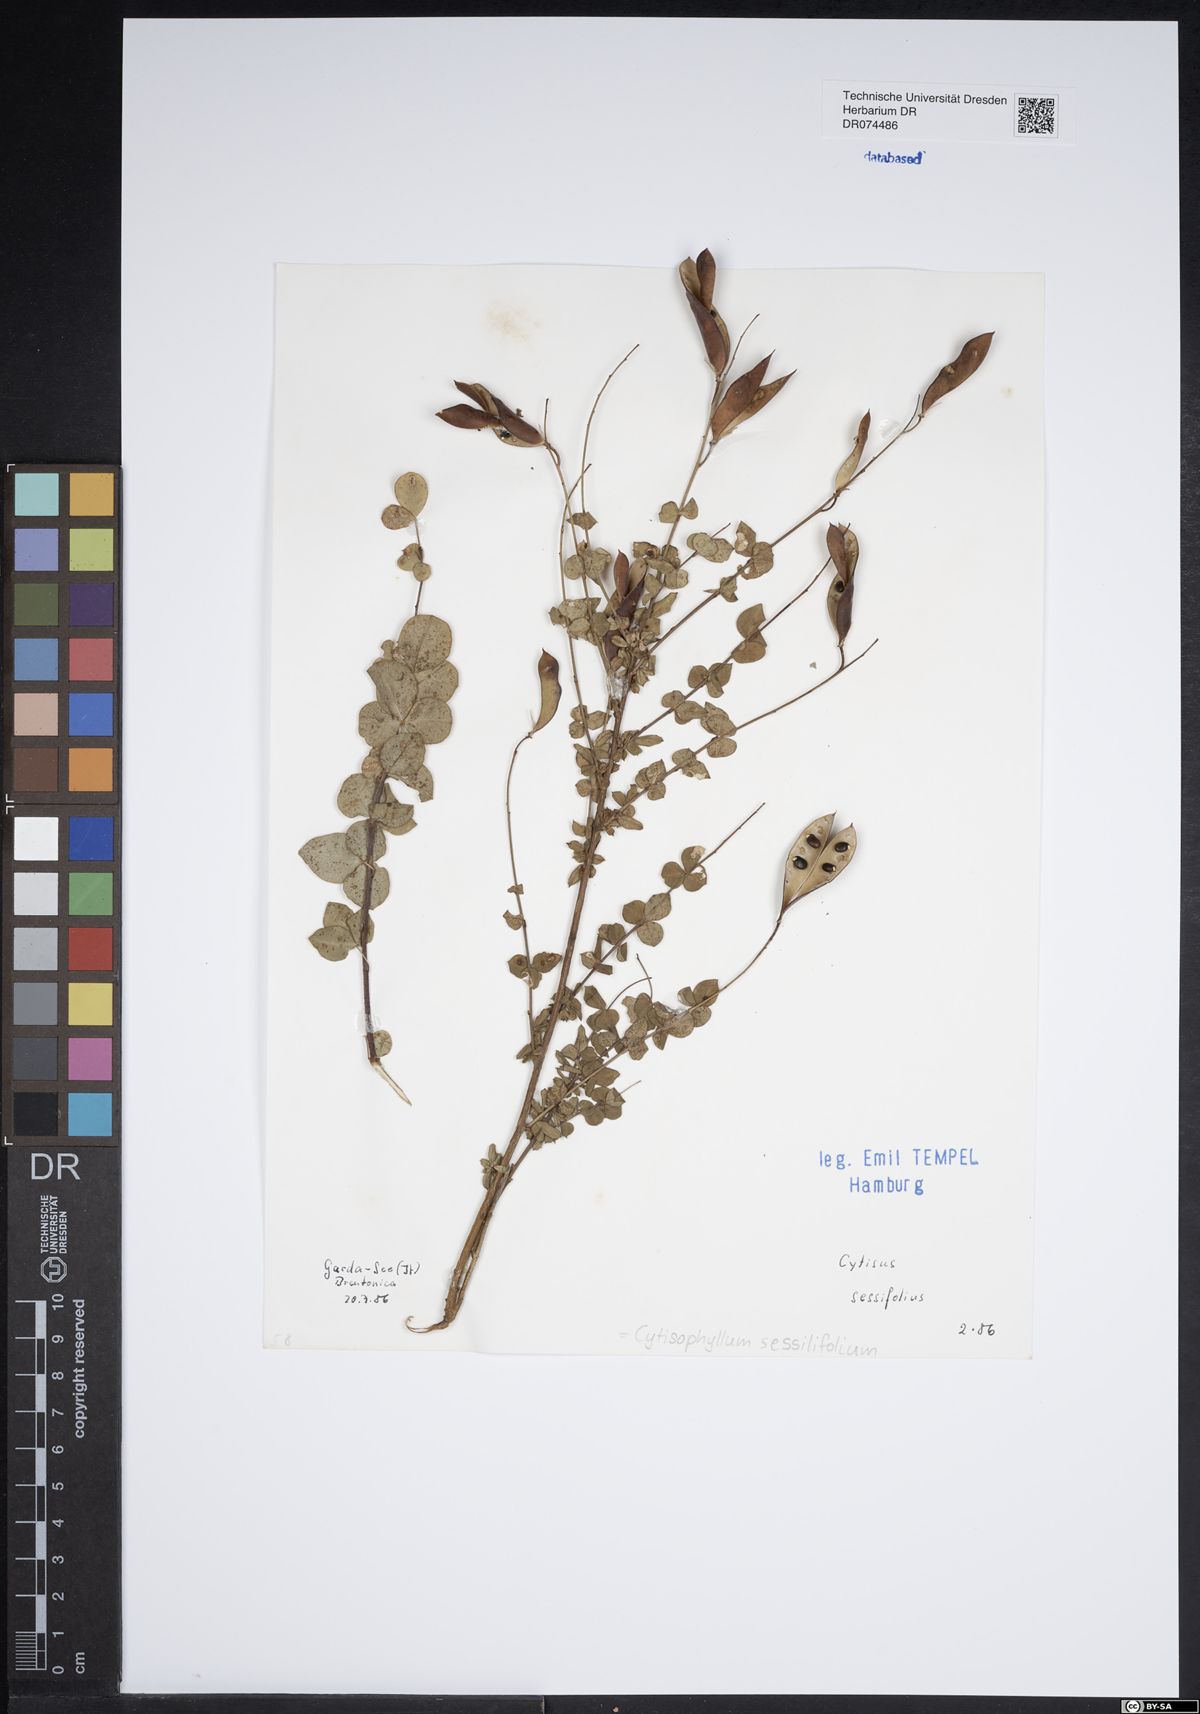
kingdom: Plantae
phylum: Tracheophyta
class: Magnoliopsida
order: Fabales
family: Fabaceae
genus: Cytisophyllum
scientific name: Cytisophyllum sessilifolium
